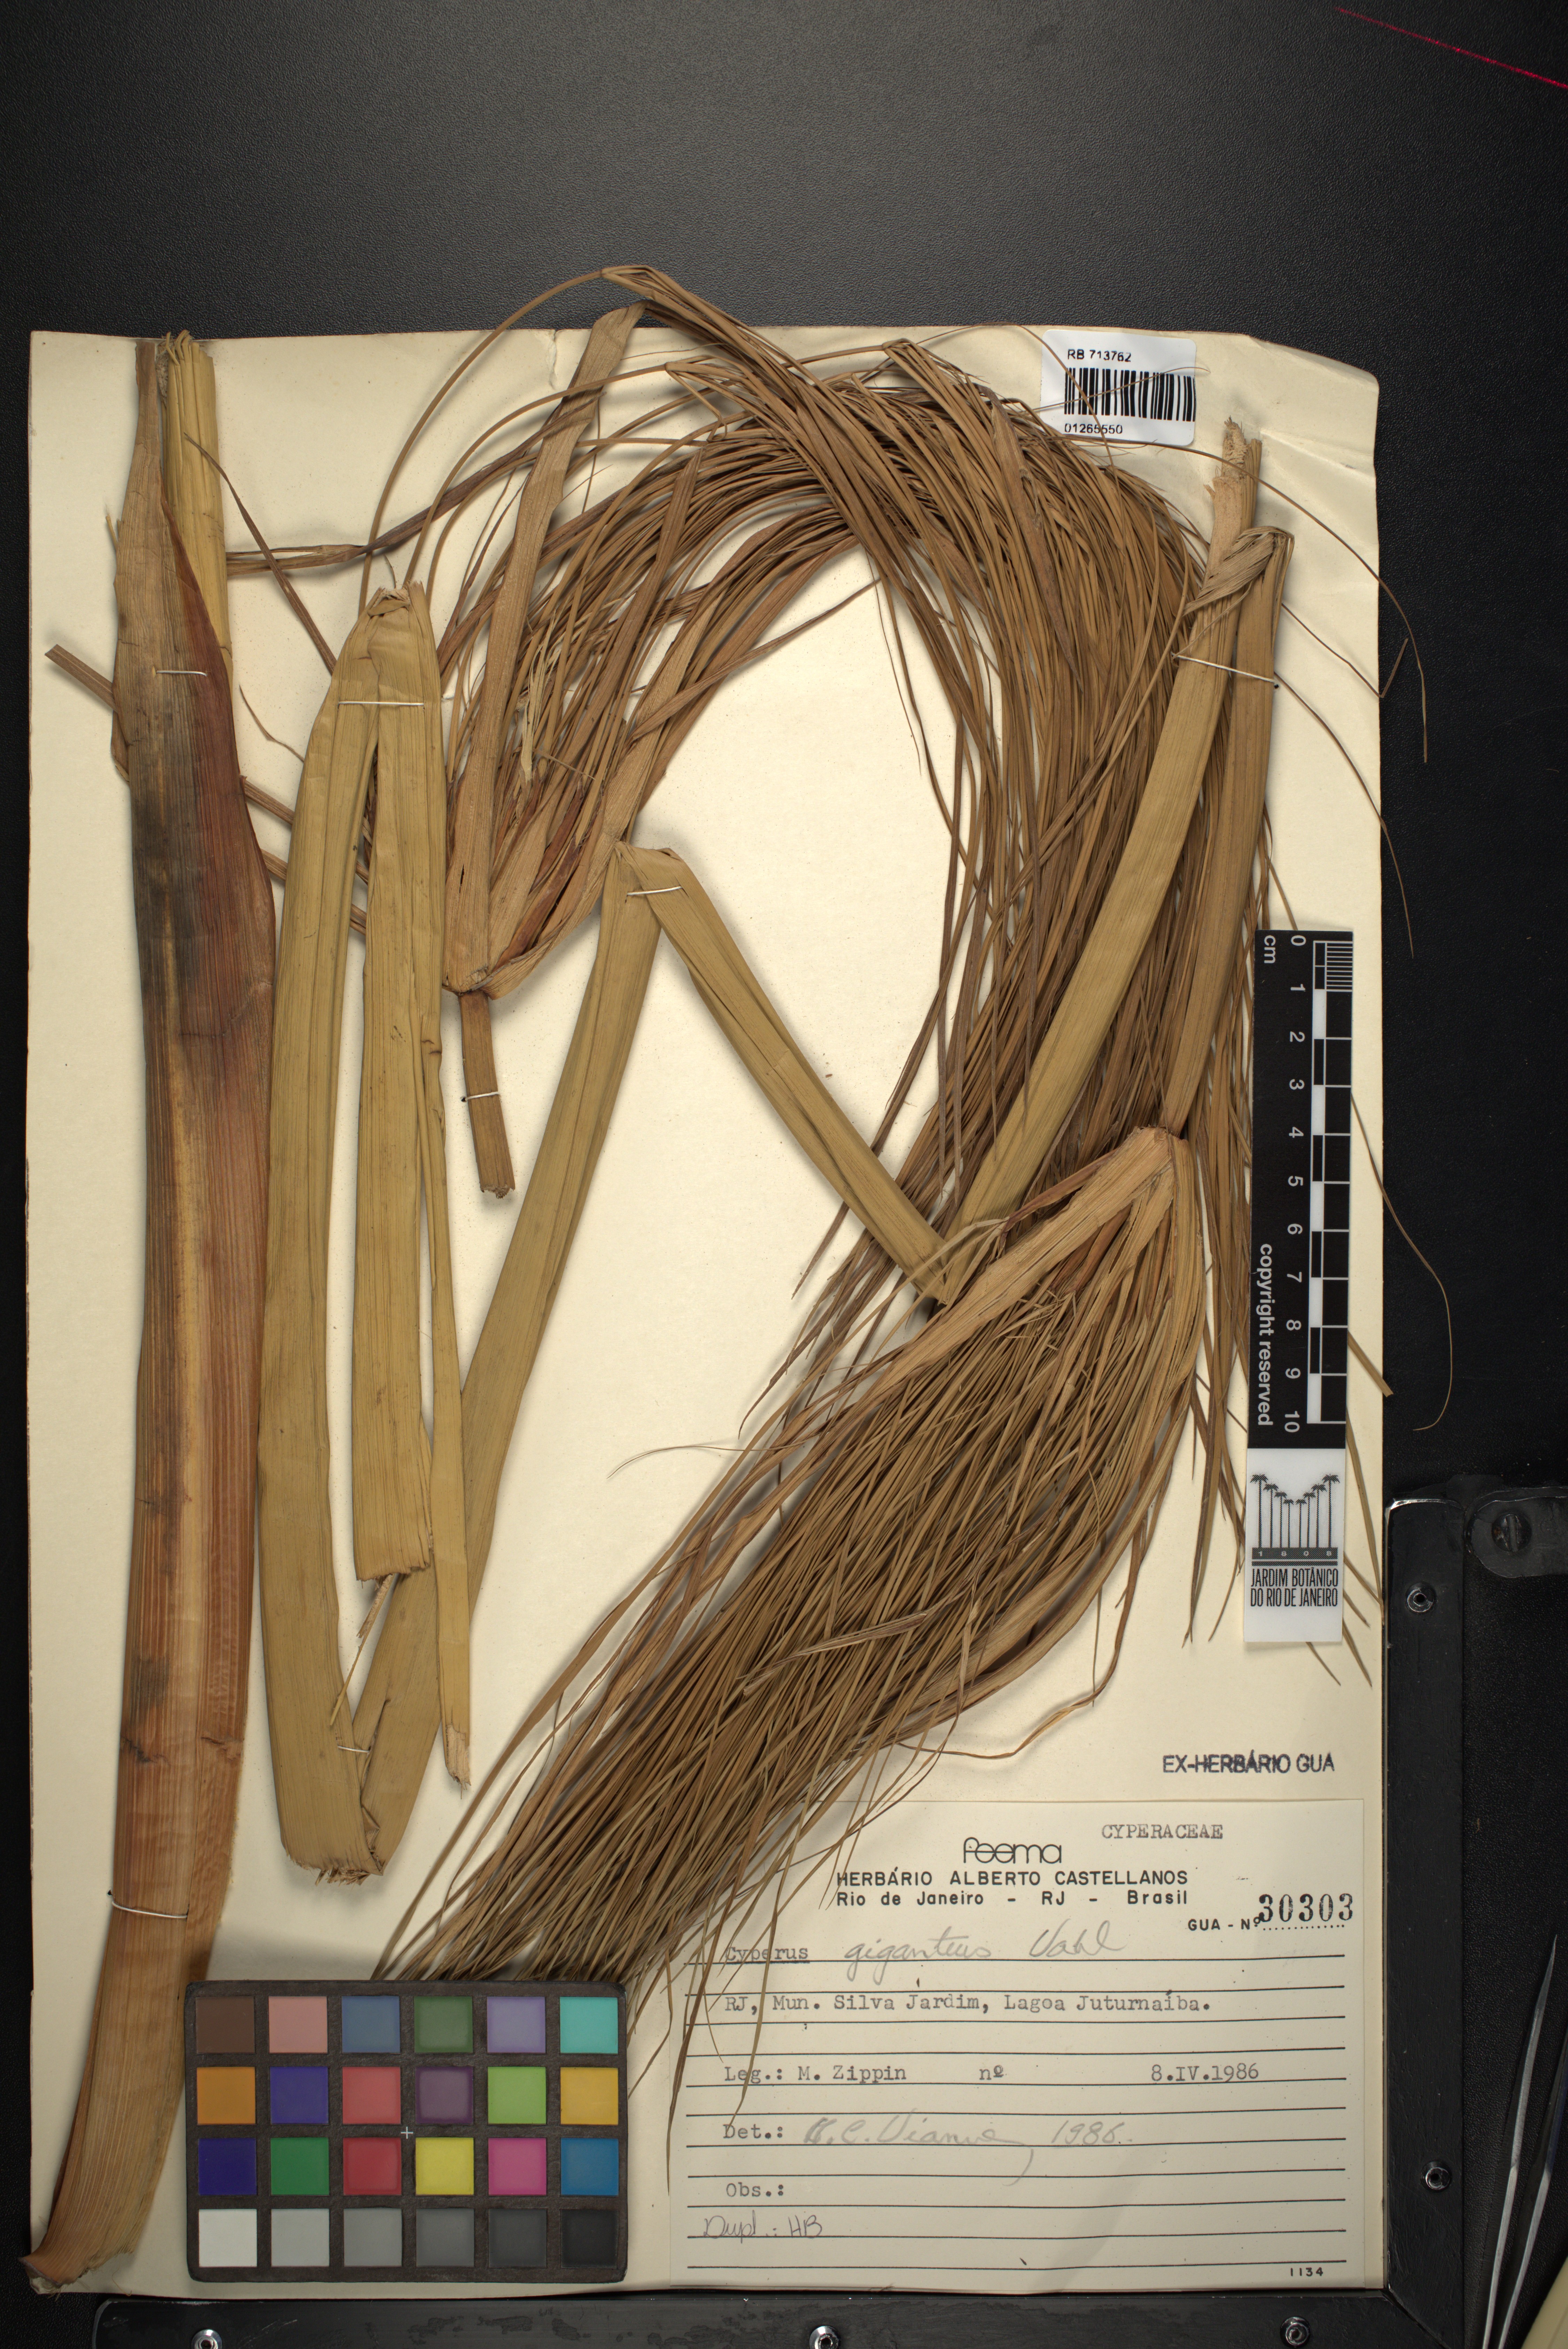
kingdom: Plantae
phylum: Tracheophyta
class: Liliopsida
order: Poales
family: Cyperaceae
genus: Cyperus
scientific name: Cyperus giganteus
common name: Giant flat sedge
